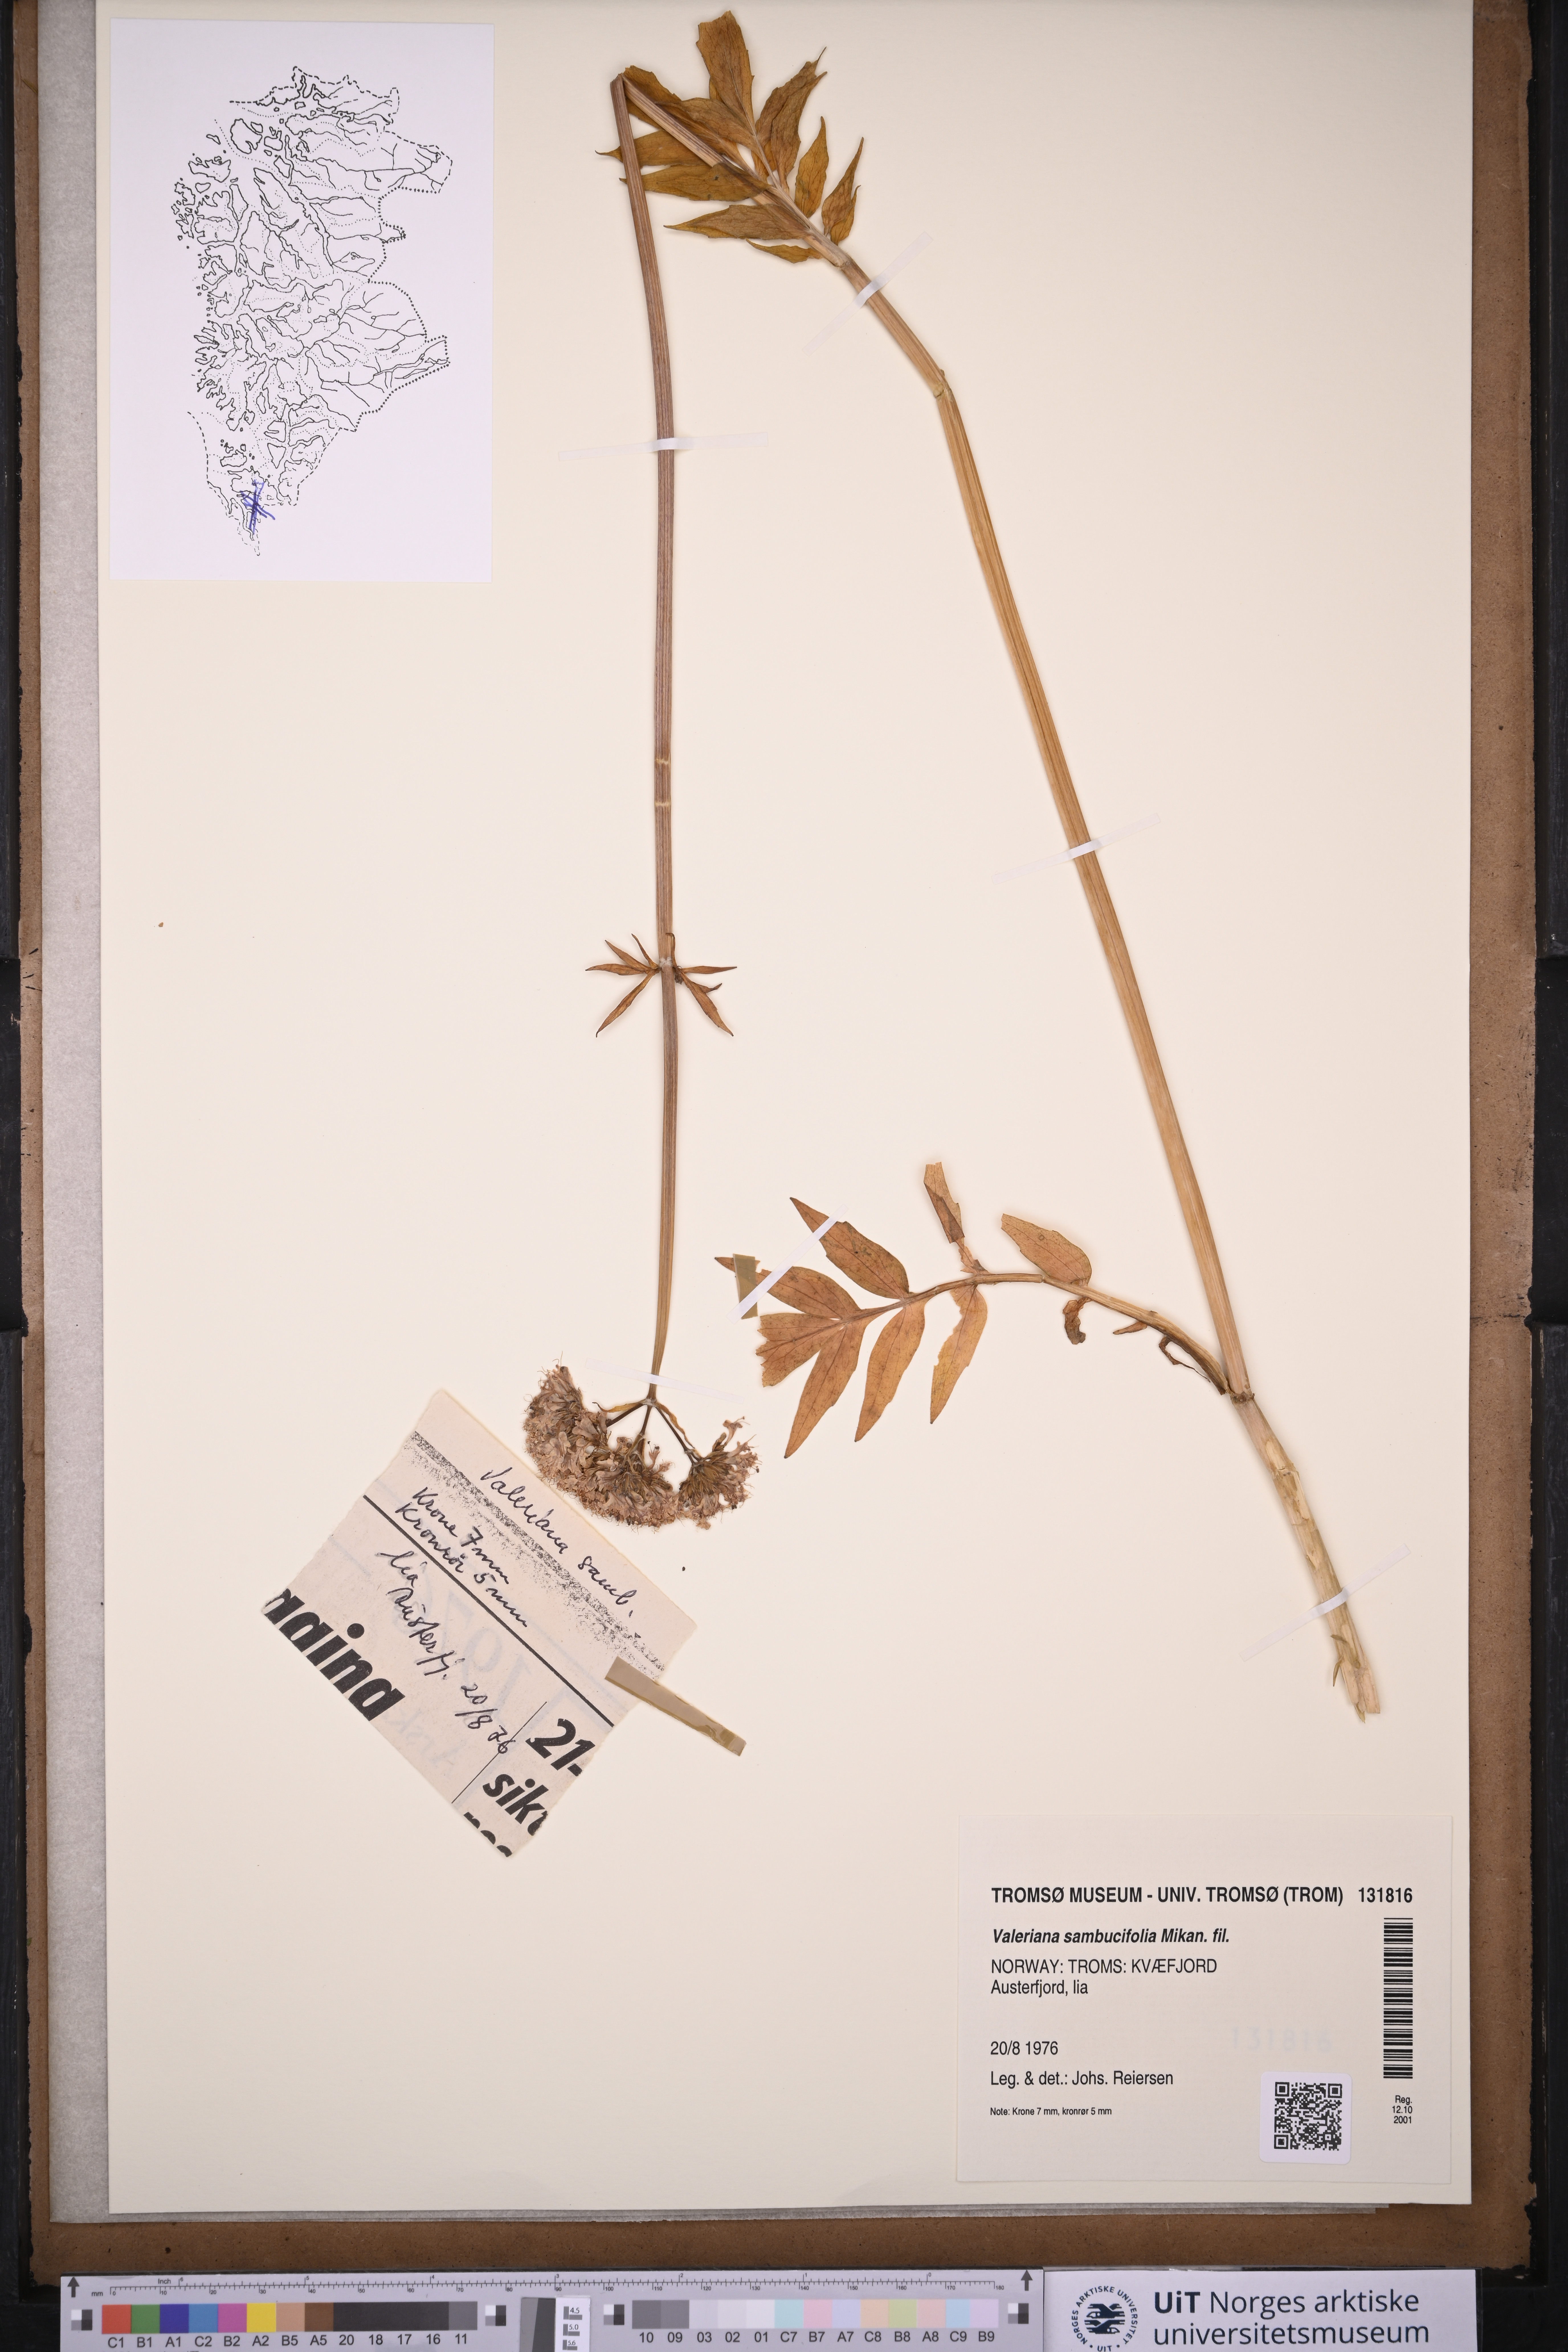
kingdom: Plantae
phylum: Tracheophyta
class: Magnoliopsida
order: Dipsacales
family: Caprifoliaceae
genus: Valeriana
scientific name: Valeriana excelsa
